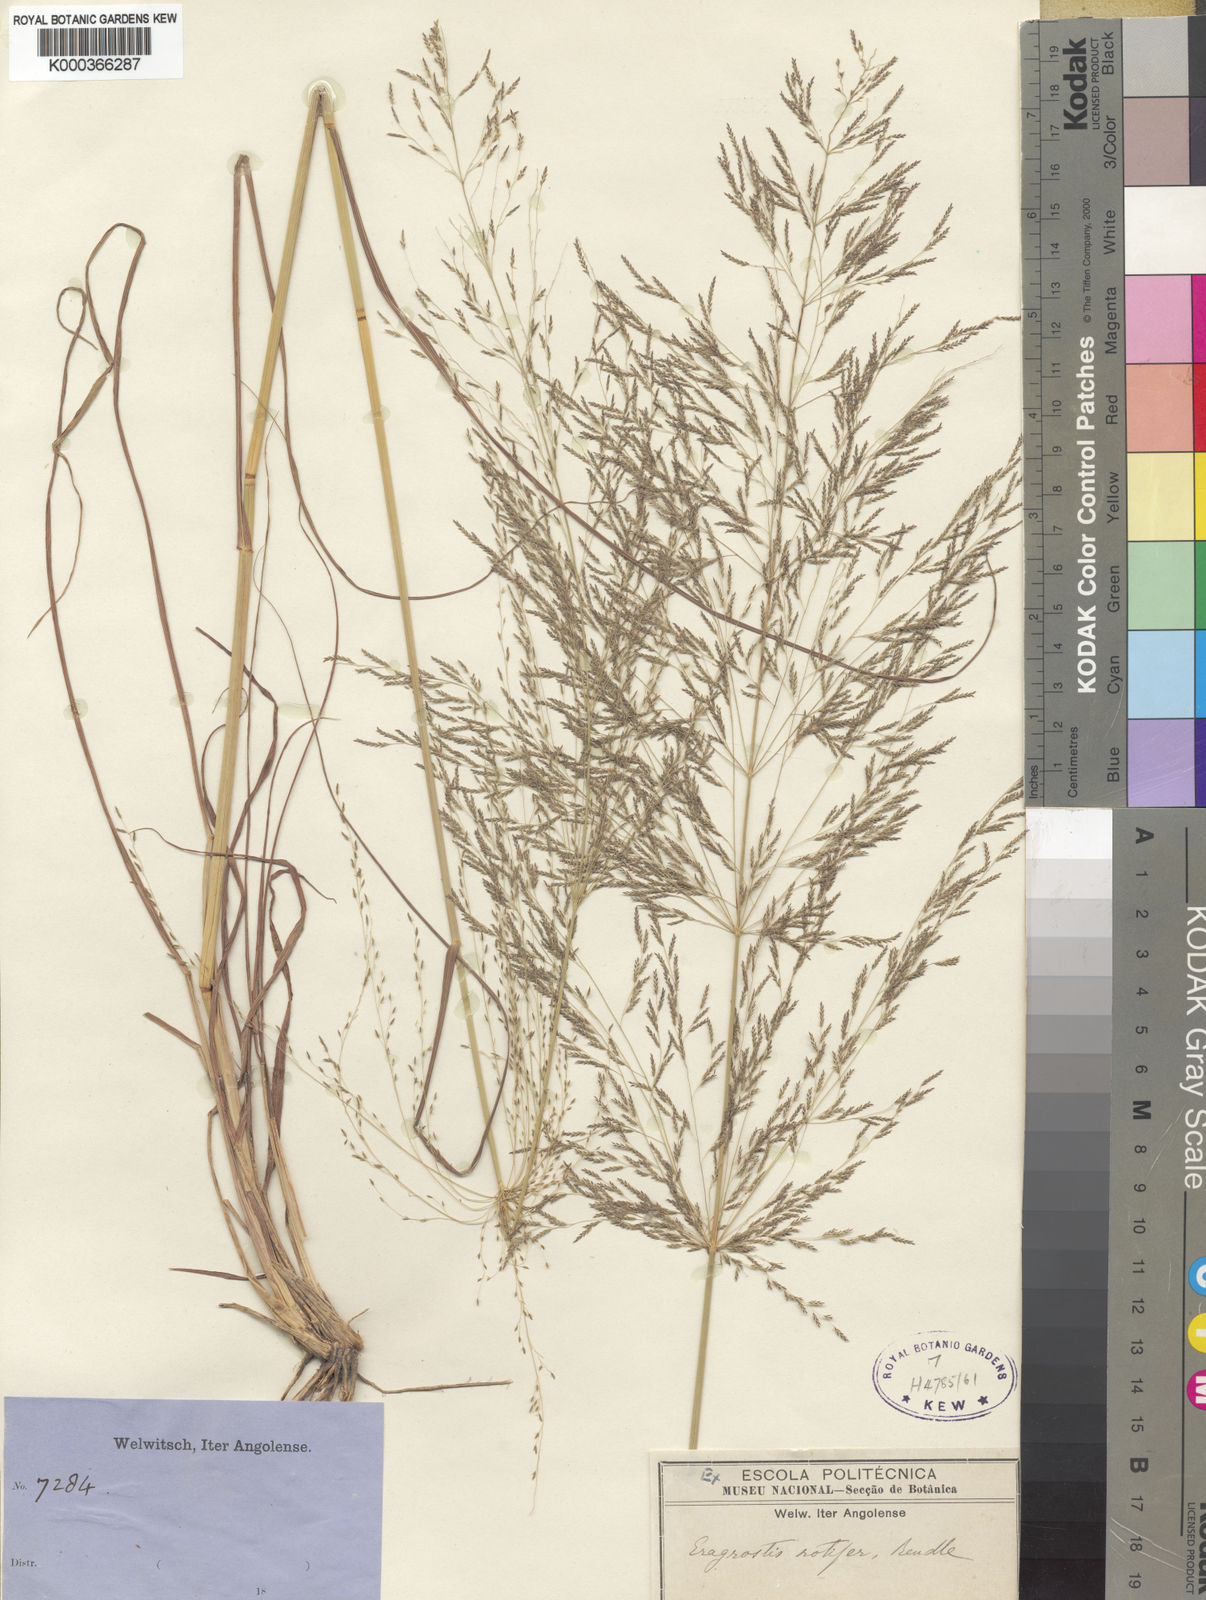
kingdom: Plantae
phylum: Tracheophyta
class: Liliopsida
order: Poales
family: Poaceae
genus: Eragrostis
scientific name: Eragrostis rotifer
